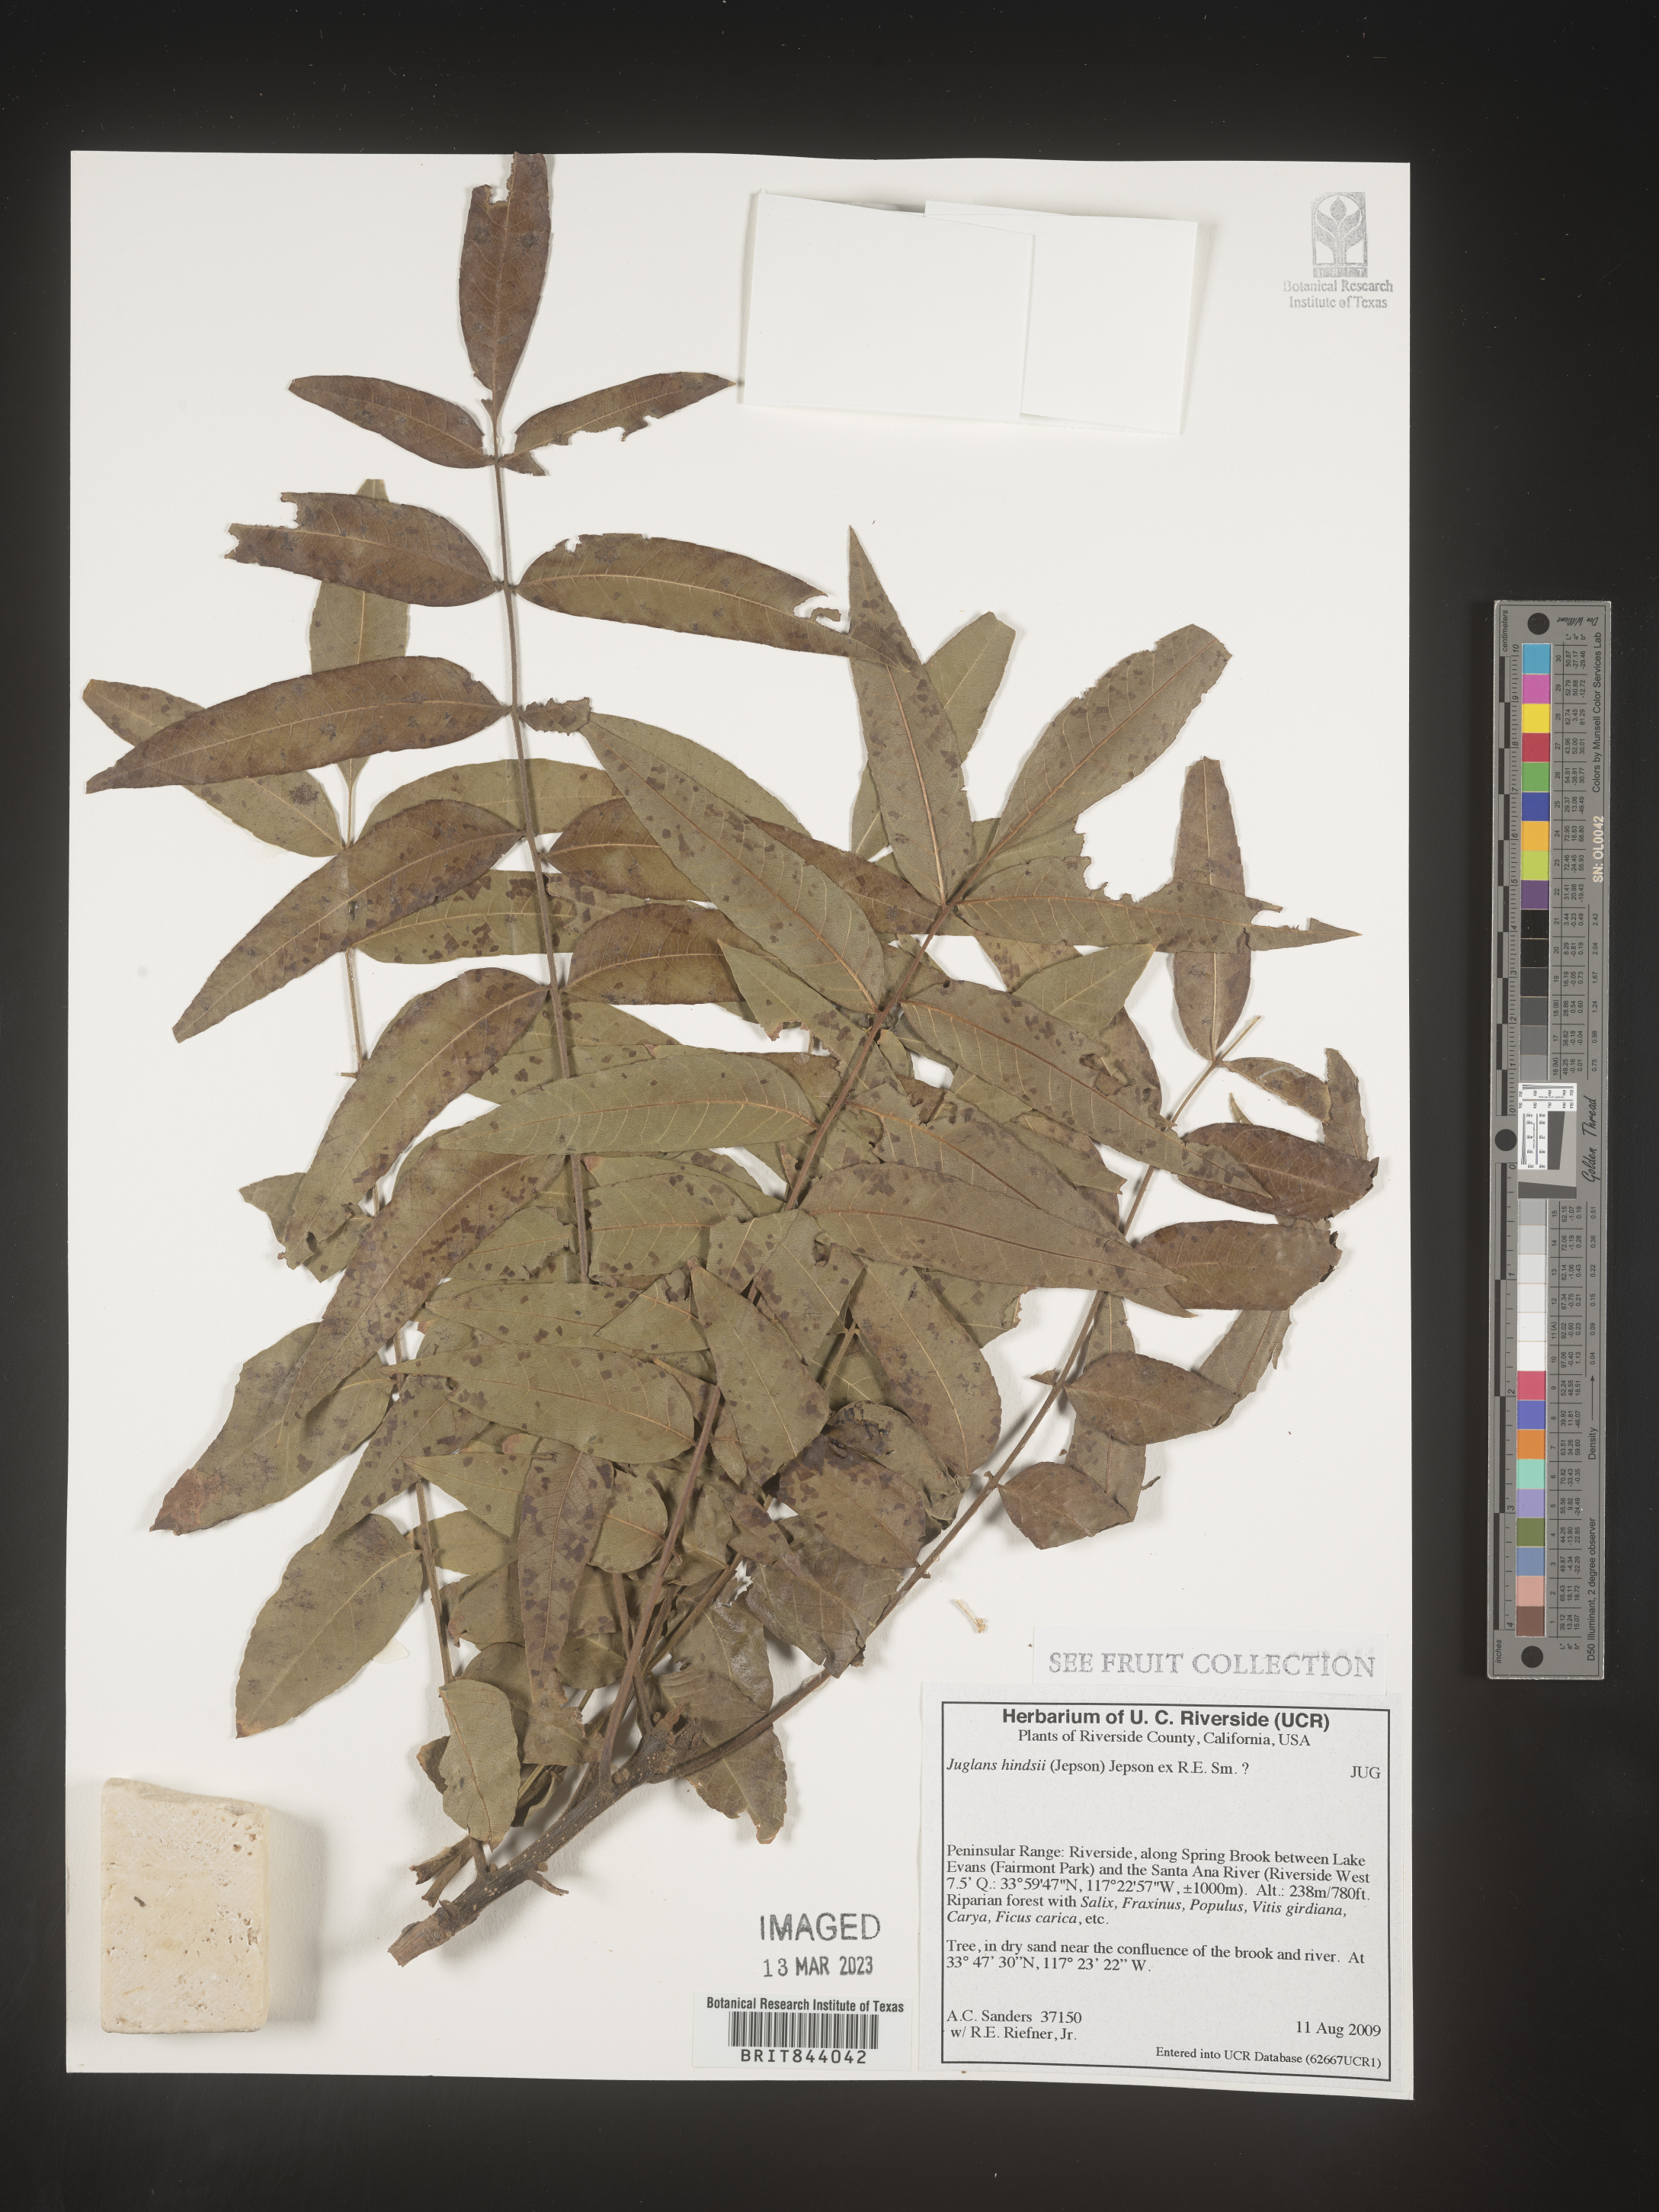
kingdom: Plantae
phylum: Tracheophyta
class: Magnoliopsida
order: Fagales
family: Juglandaceae
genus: Juglans
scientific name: Juglans hindsii
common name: Northern california black walnut
